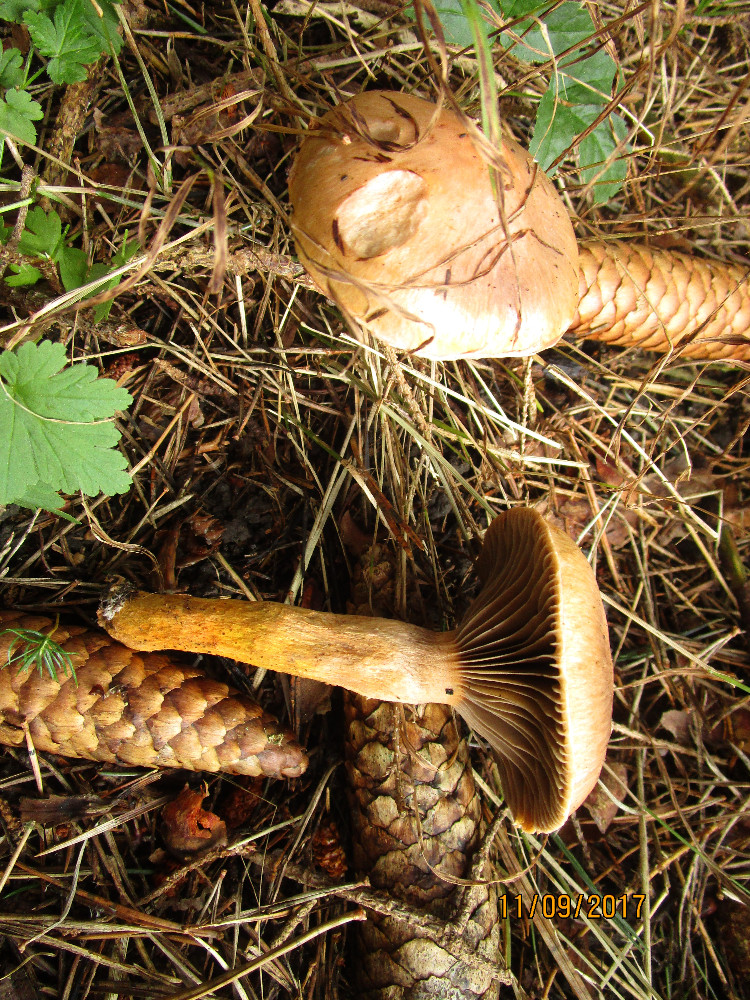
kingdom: Fungi
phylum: Basidiomycota
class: Agaricomycetes
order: Boletales
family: Gomphidiaceae
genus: Chroogomphus
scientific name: Chroogomphus rutilus
